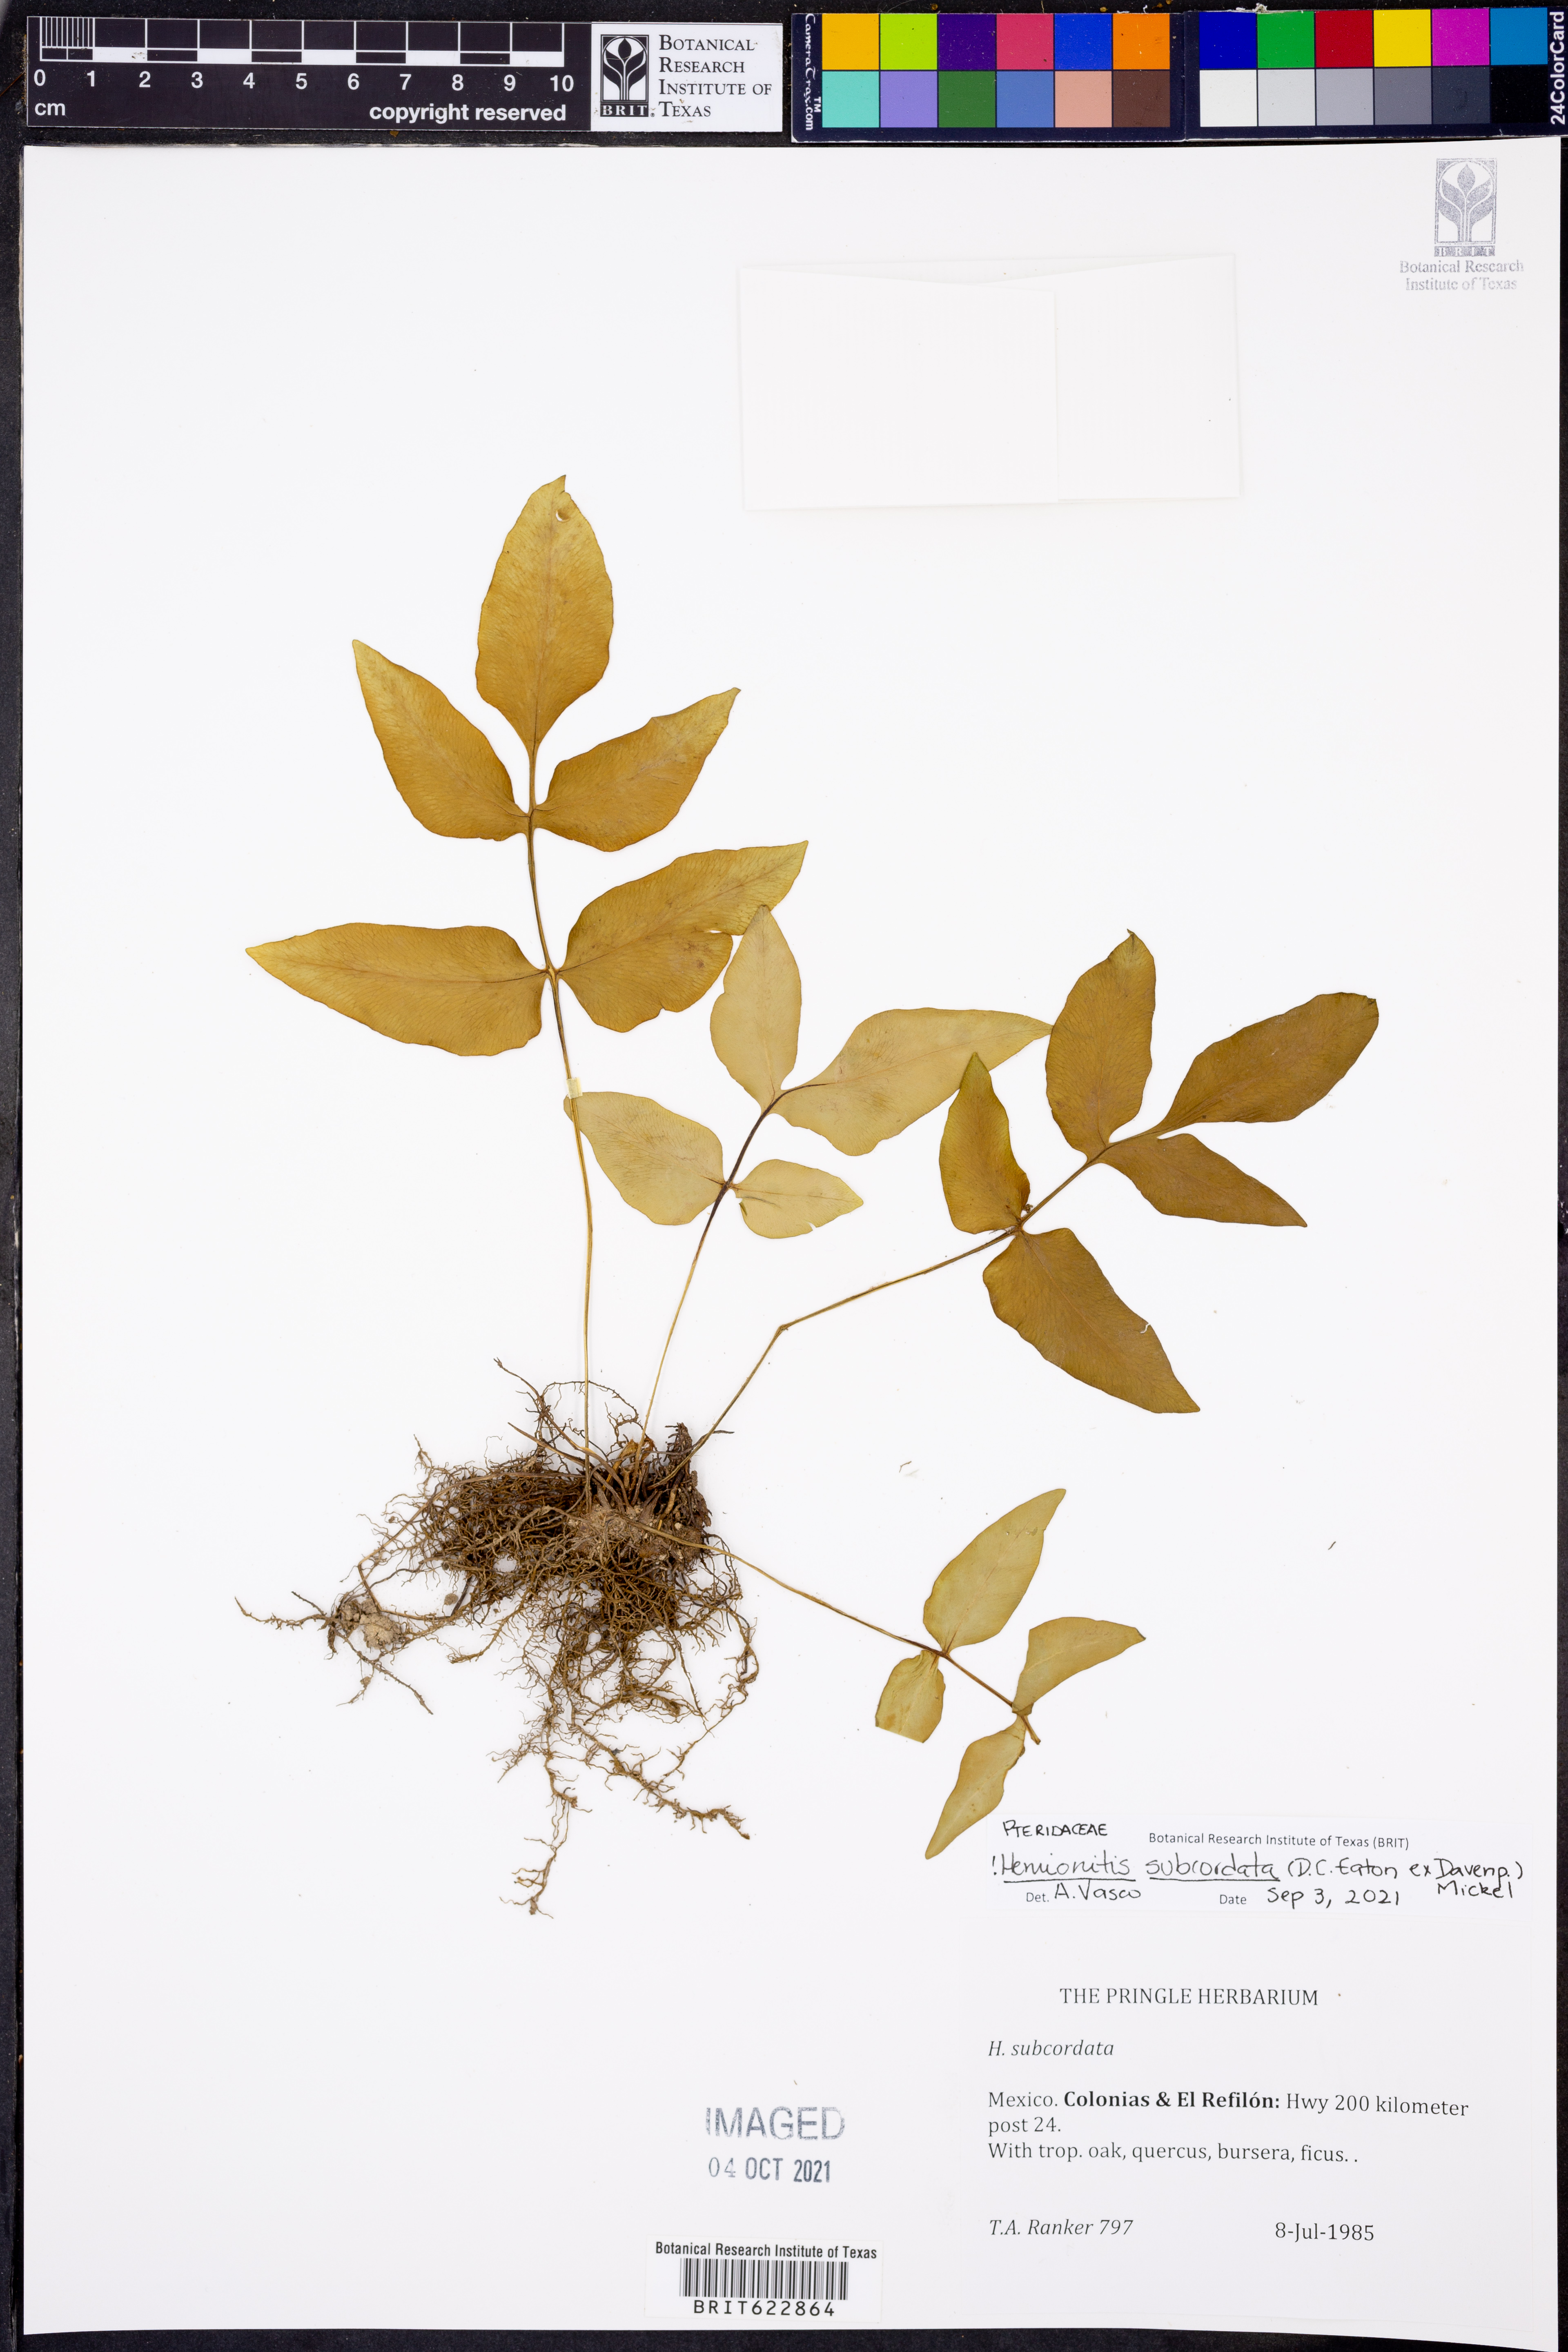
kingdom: Plantae
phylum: Tracheophyta
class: Polypodiopsida
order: Polypodiales
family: Pteridaceae
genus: Cheilanthes
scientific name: Cheilanthes subcordata
